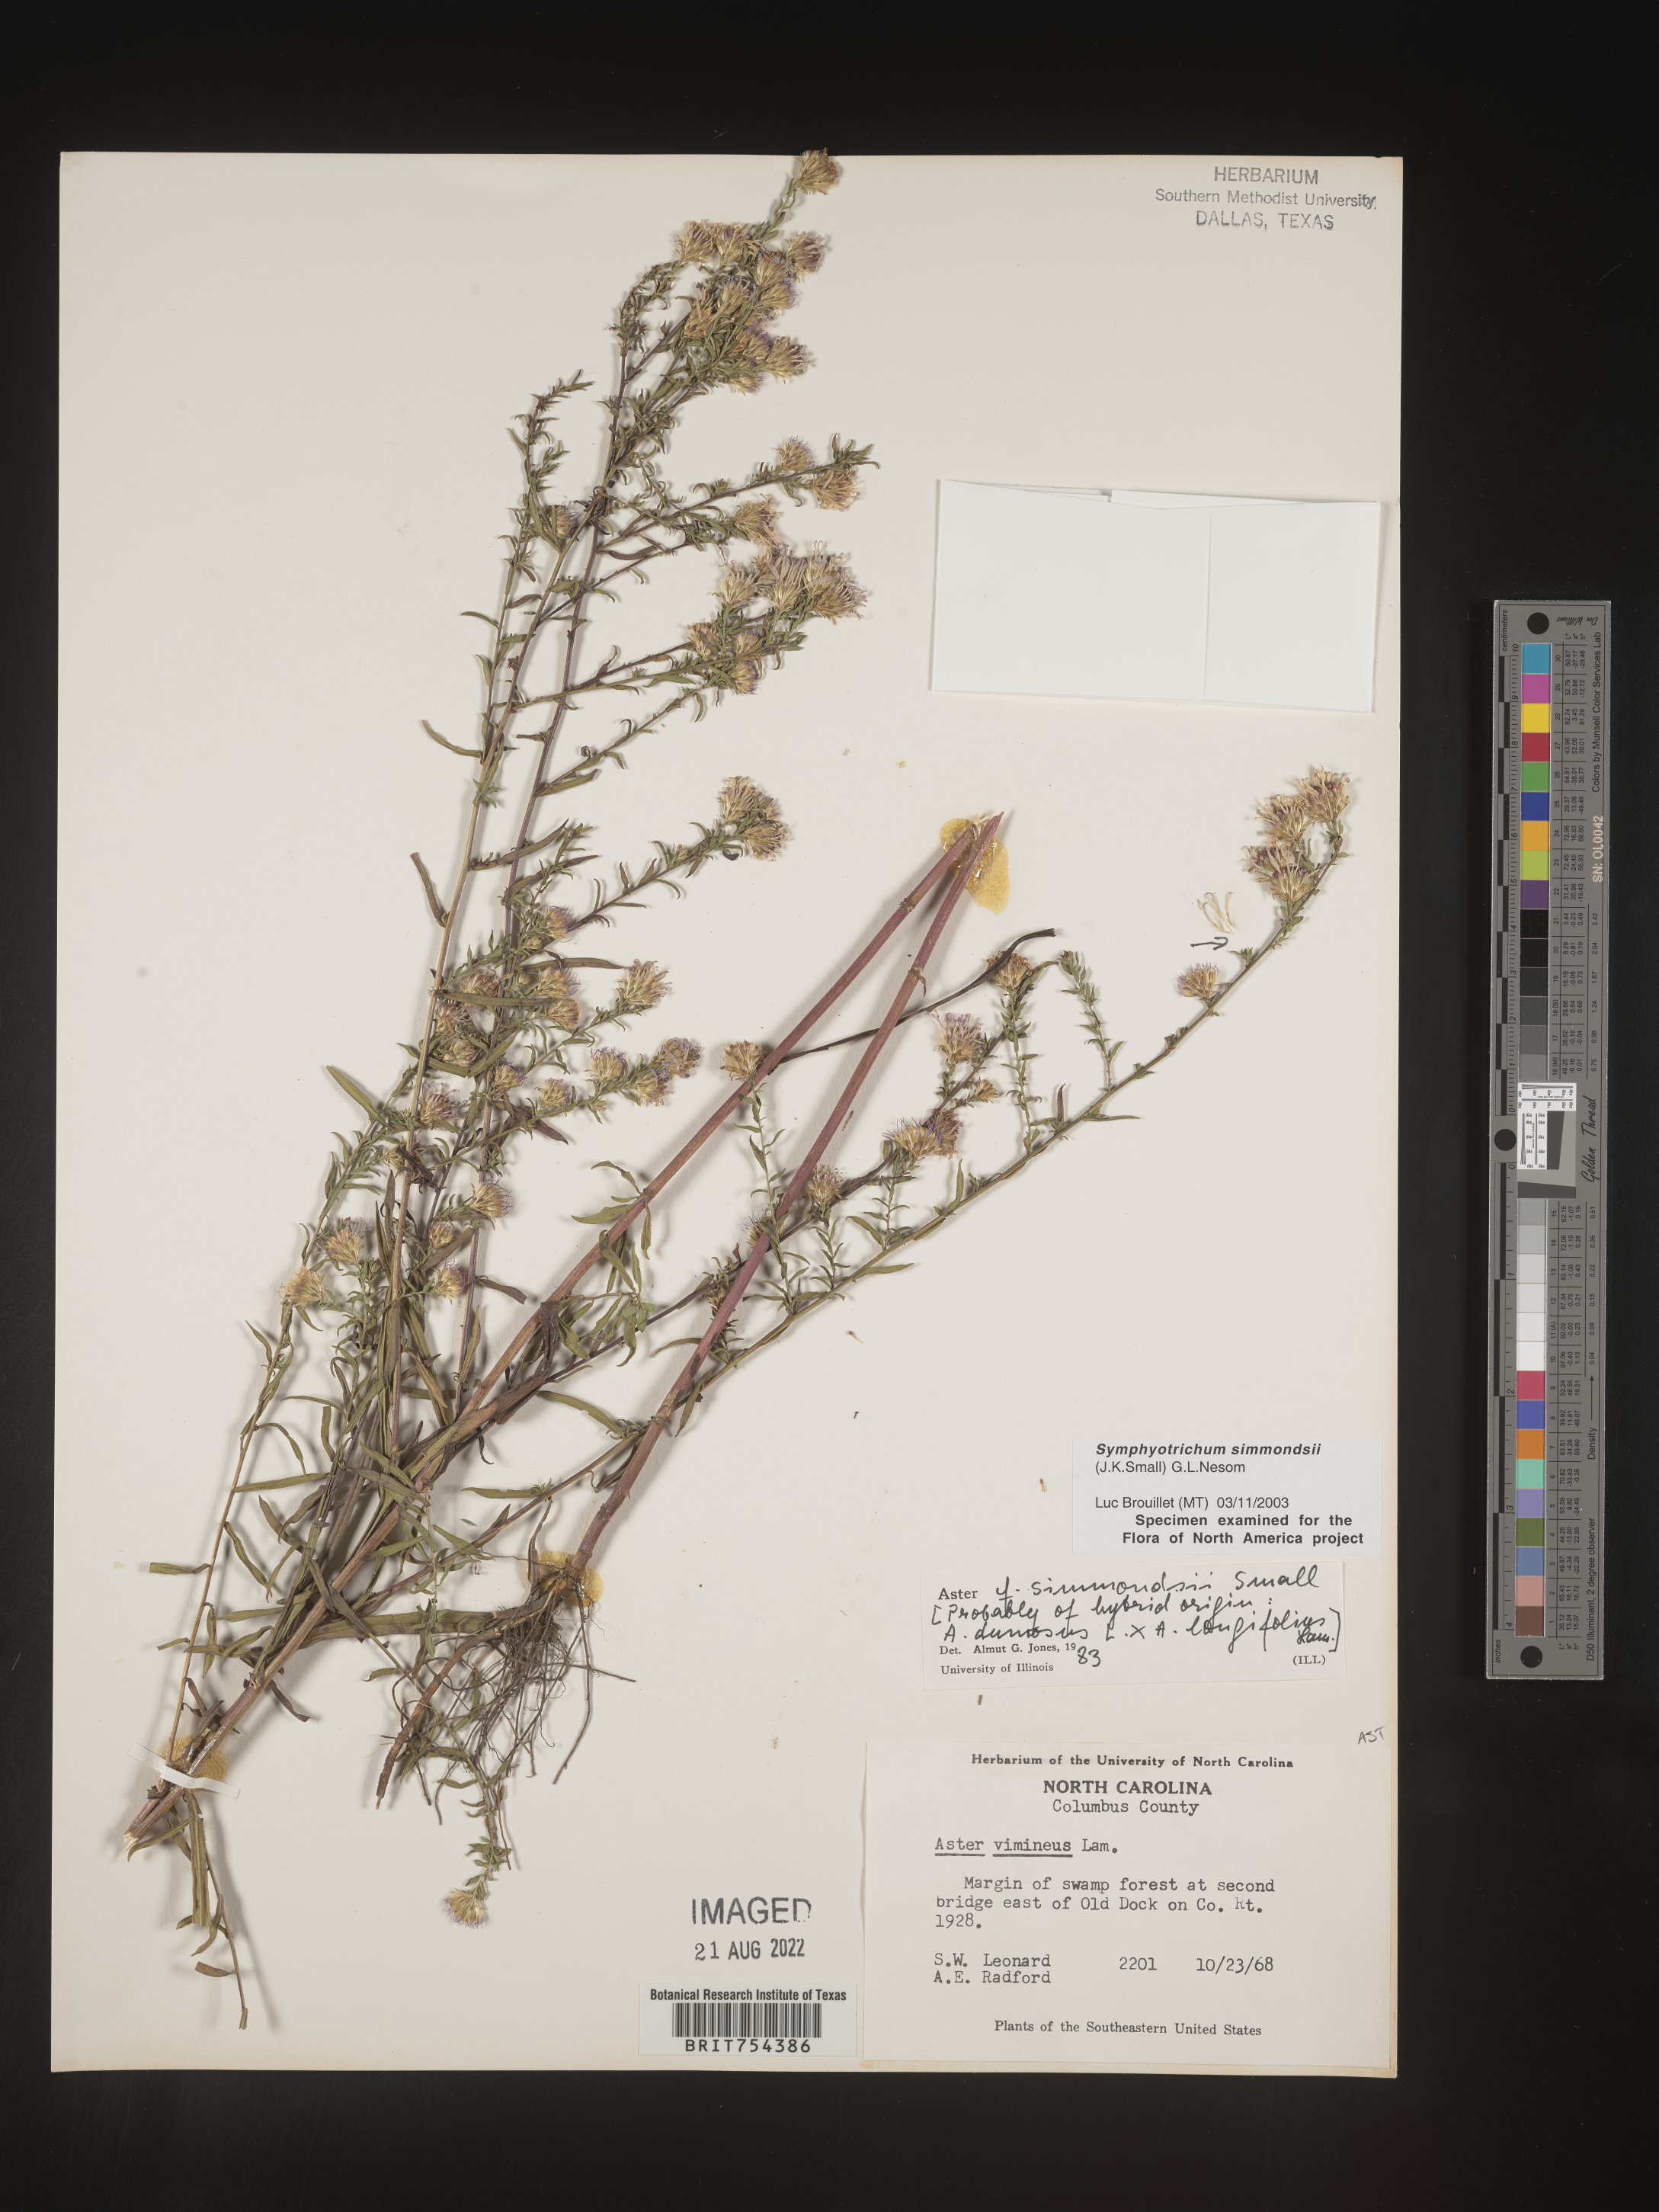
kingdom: Plantae
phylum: Tracheophyta
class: Magnoliopsida
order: Asterales
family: Asteraceae
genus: Symphyotrichum
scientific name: Symphyotrichum simmondsii
